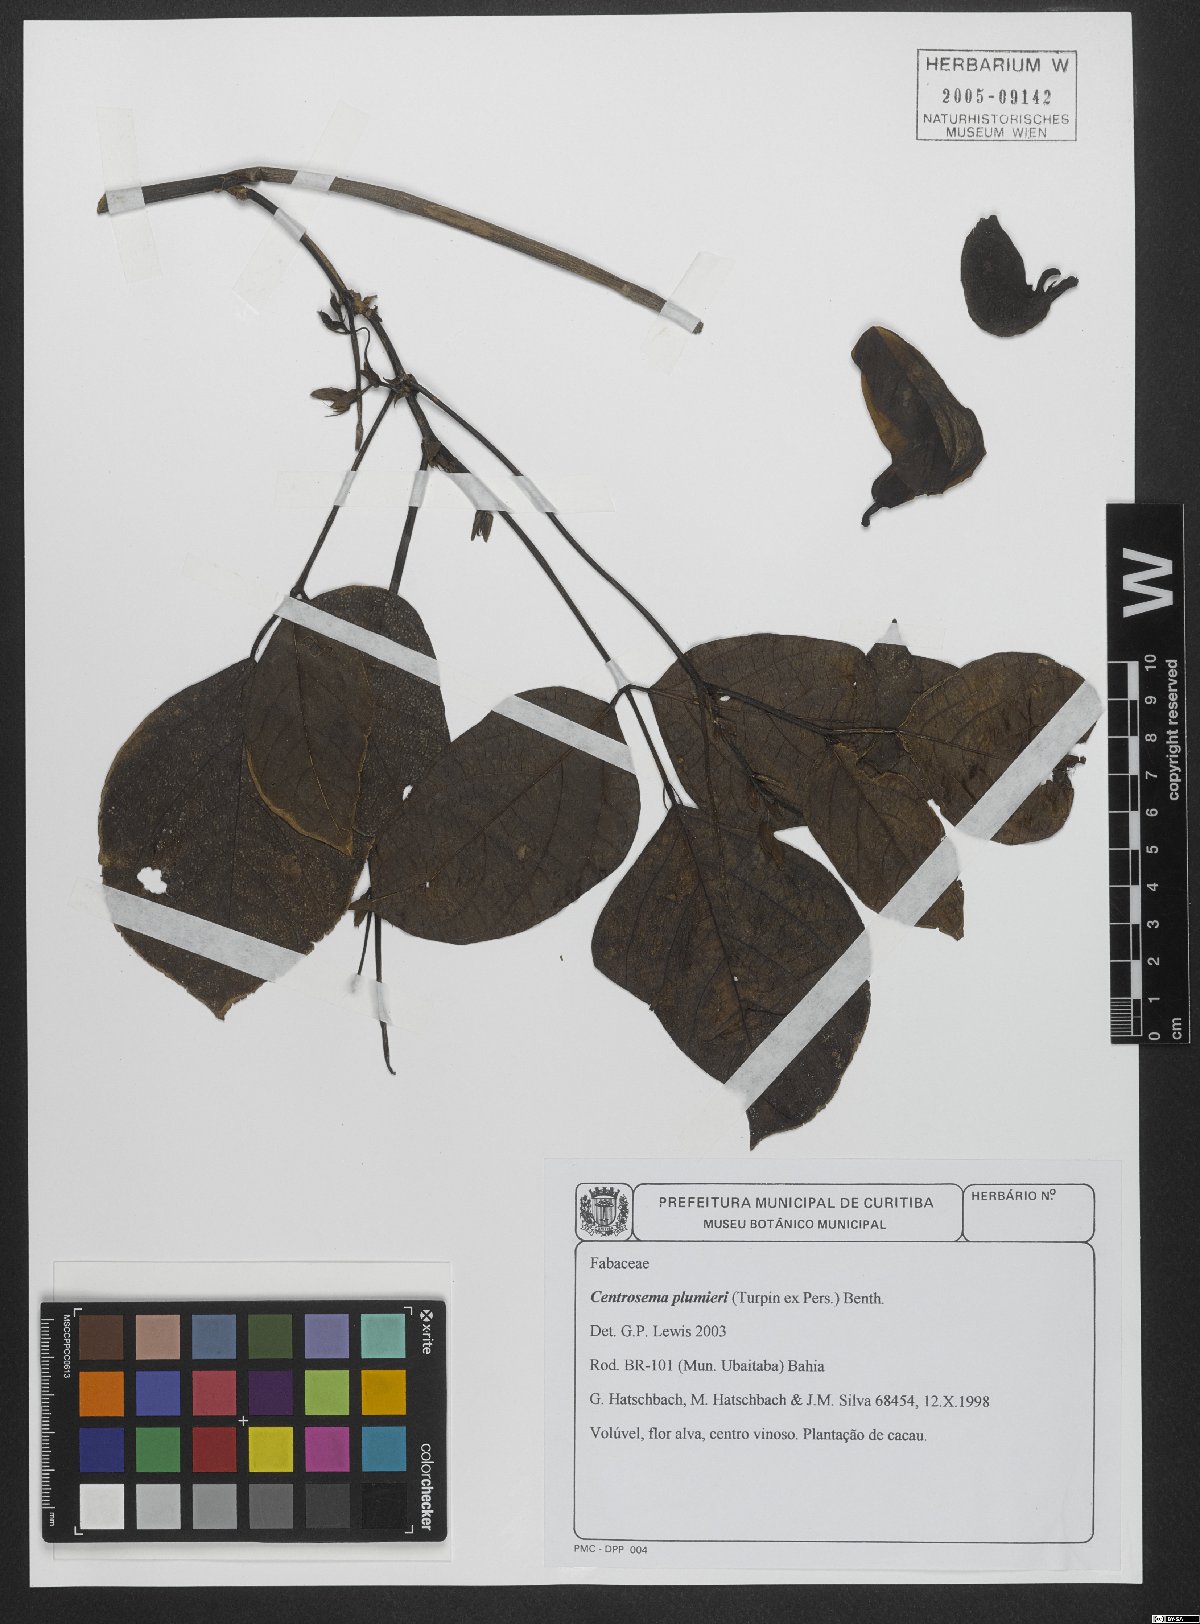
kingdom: Plantae
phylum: Tracheophyta
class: Magnoliopsida
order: Fabales
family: Fabaceae
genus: Centrosema
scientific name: Centrosema plumieri
